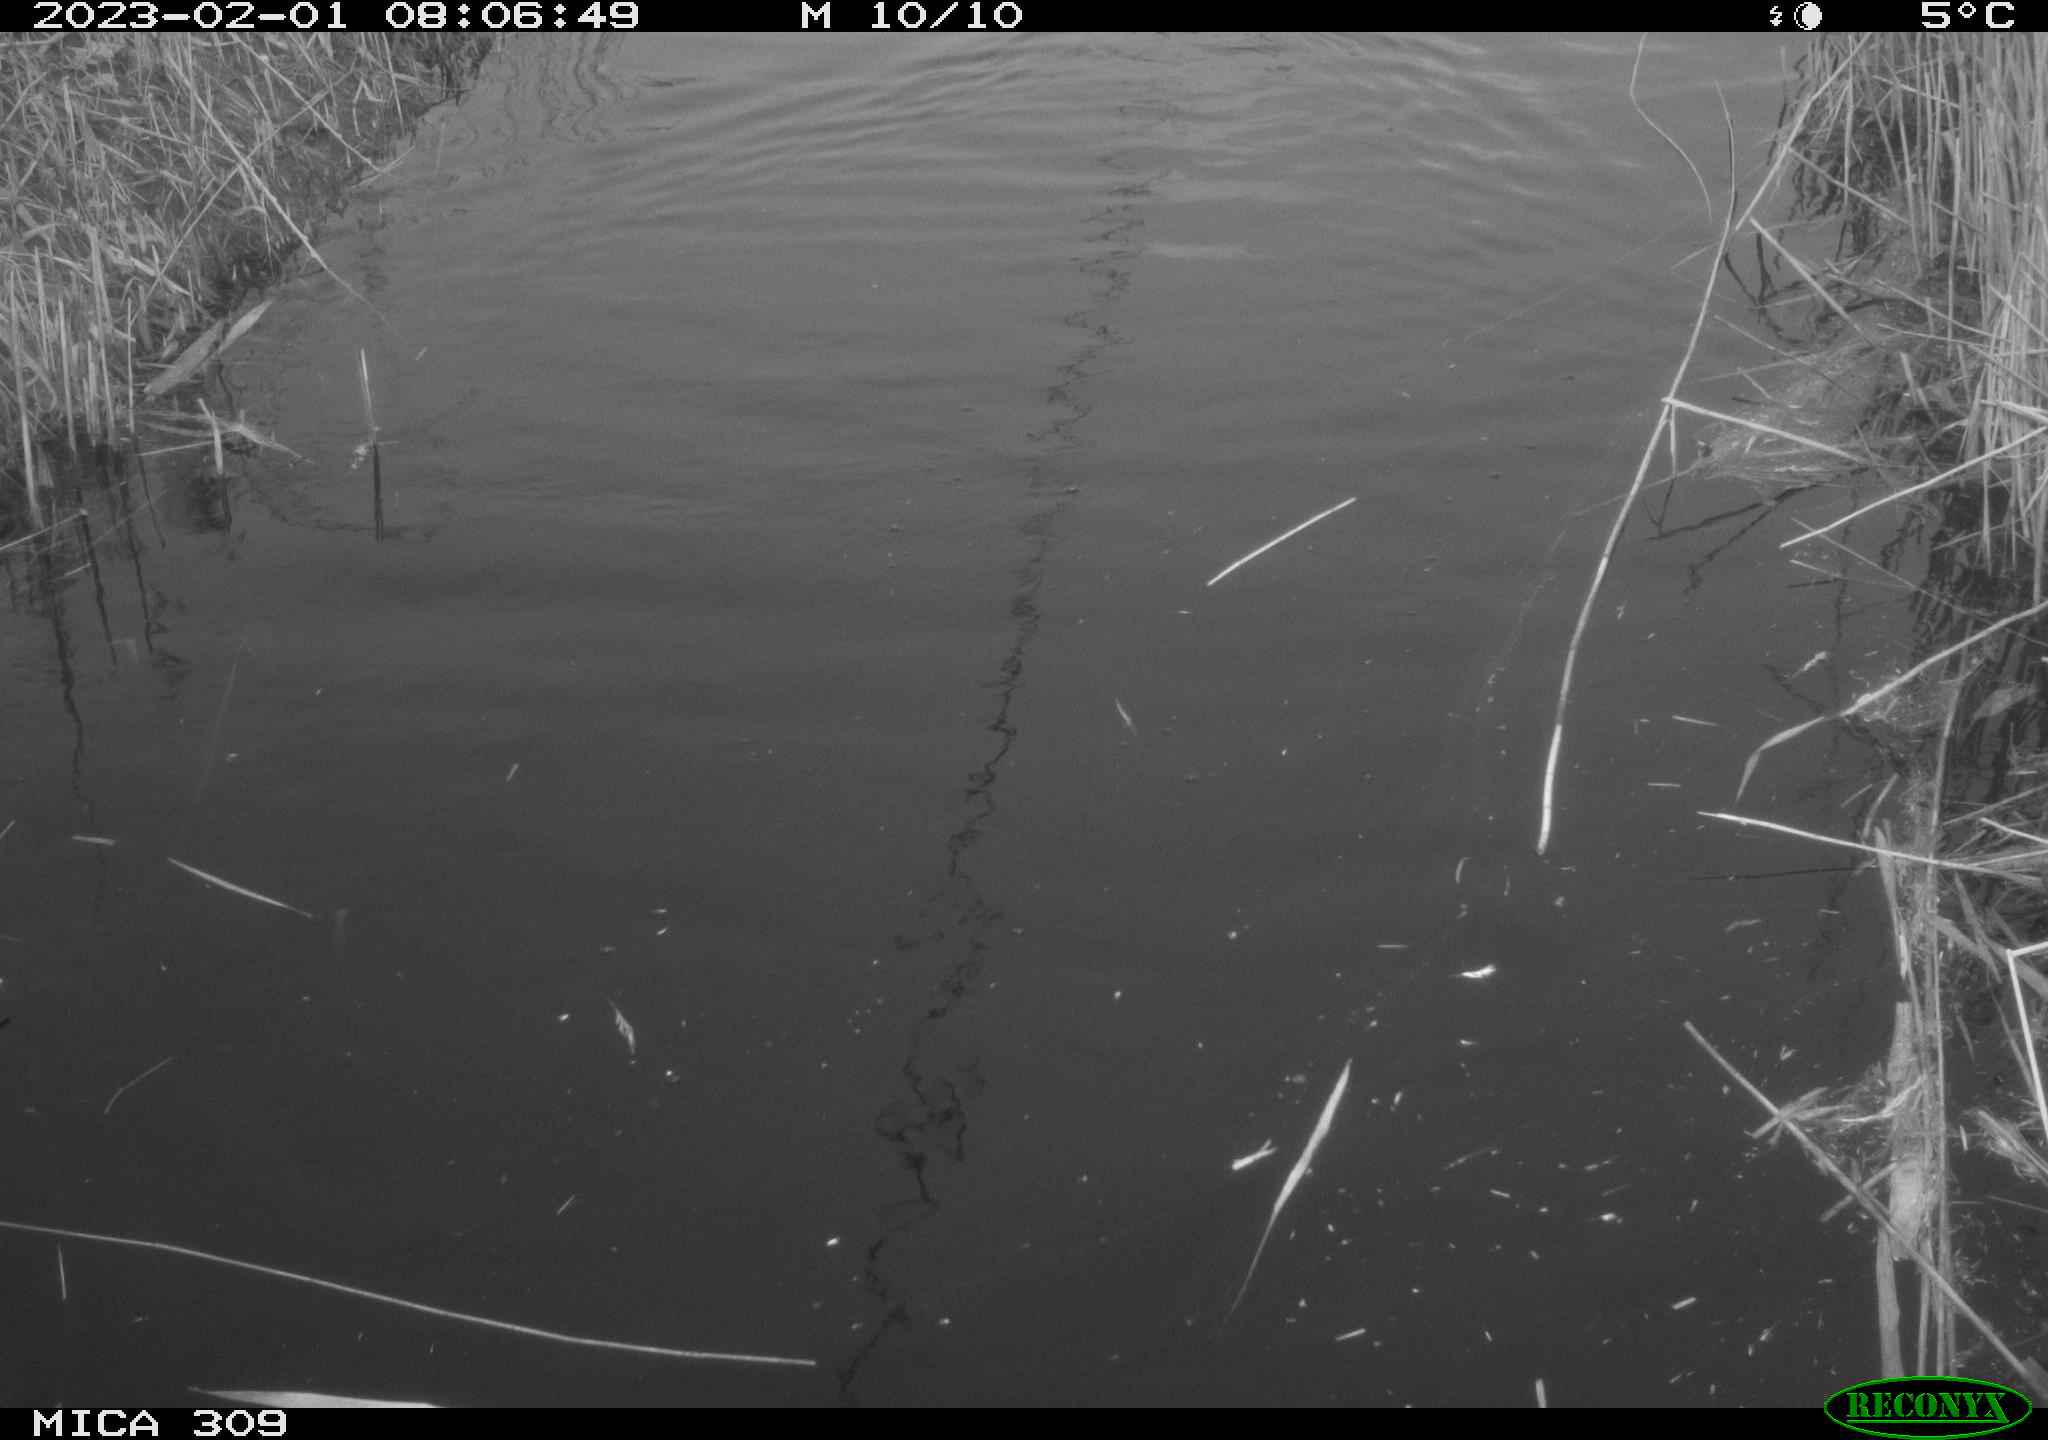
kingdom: Animalia
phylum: Chordata
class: Aves
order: Gruiformes
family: Rallidae
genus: Fulica
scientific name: Fulica atra
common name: Eurasian coot
